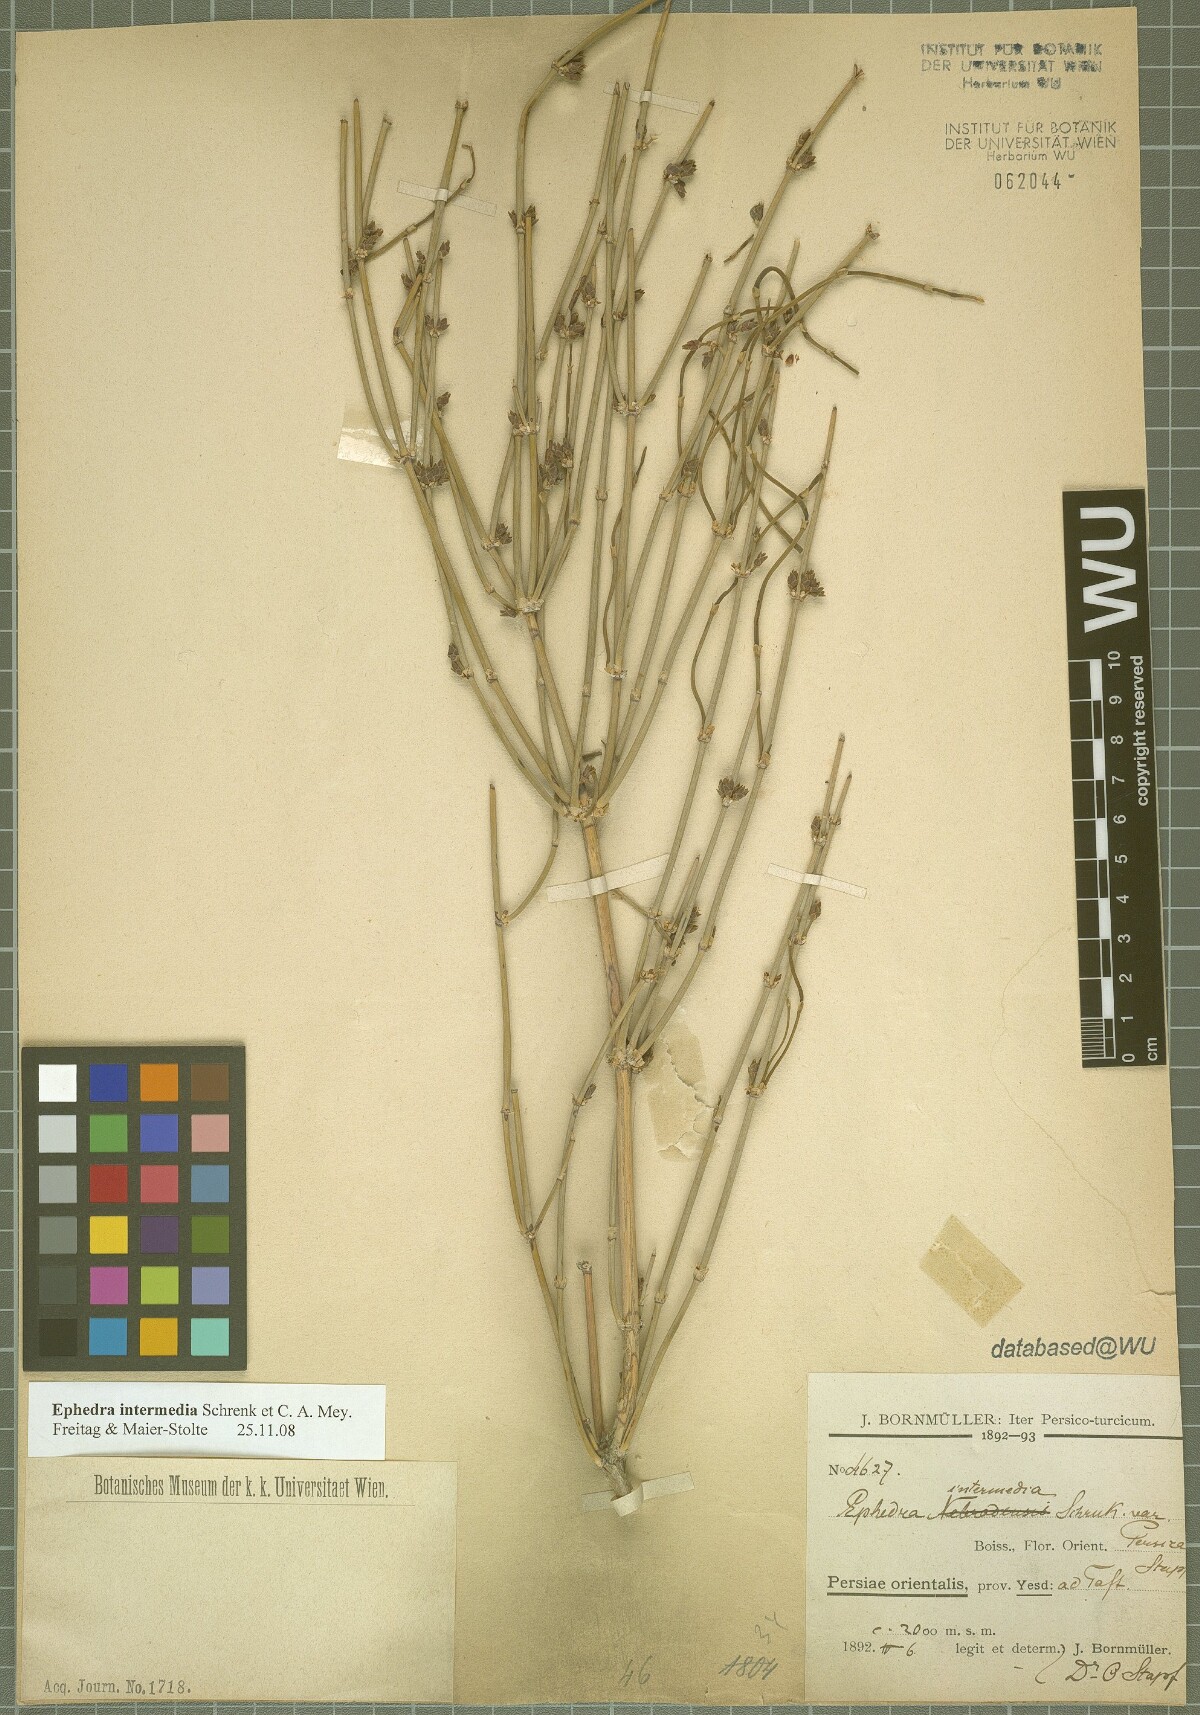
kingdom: Plantae
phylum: Tracheophyta
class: Gnetopsida
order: Ephedrales
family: Ephedraceae
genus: Ephedra
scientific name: Ephedra intermedia
